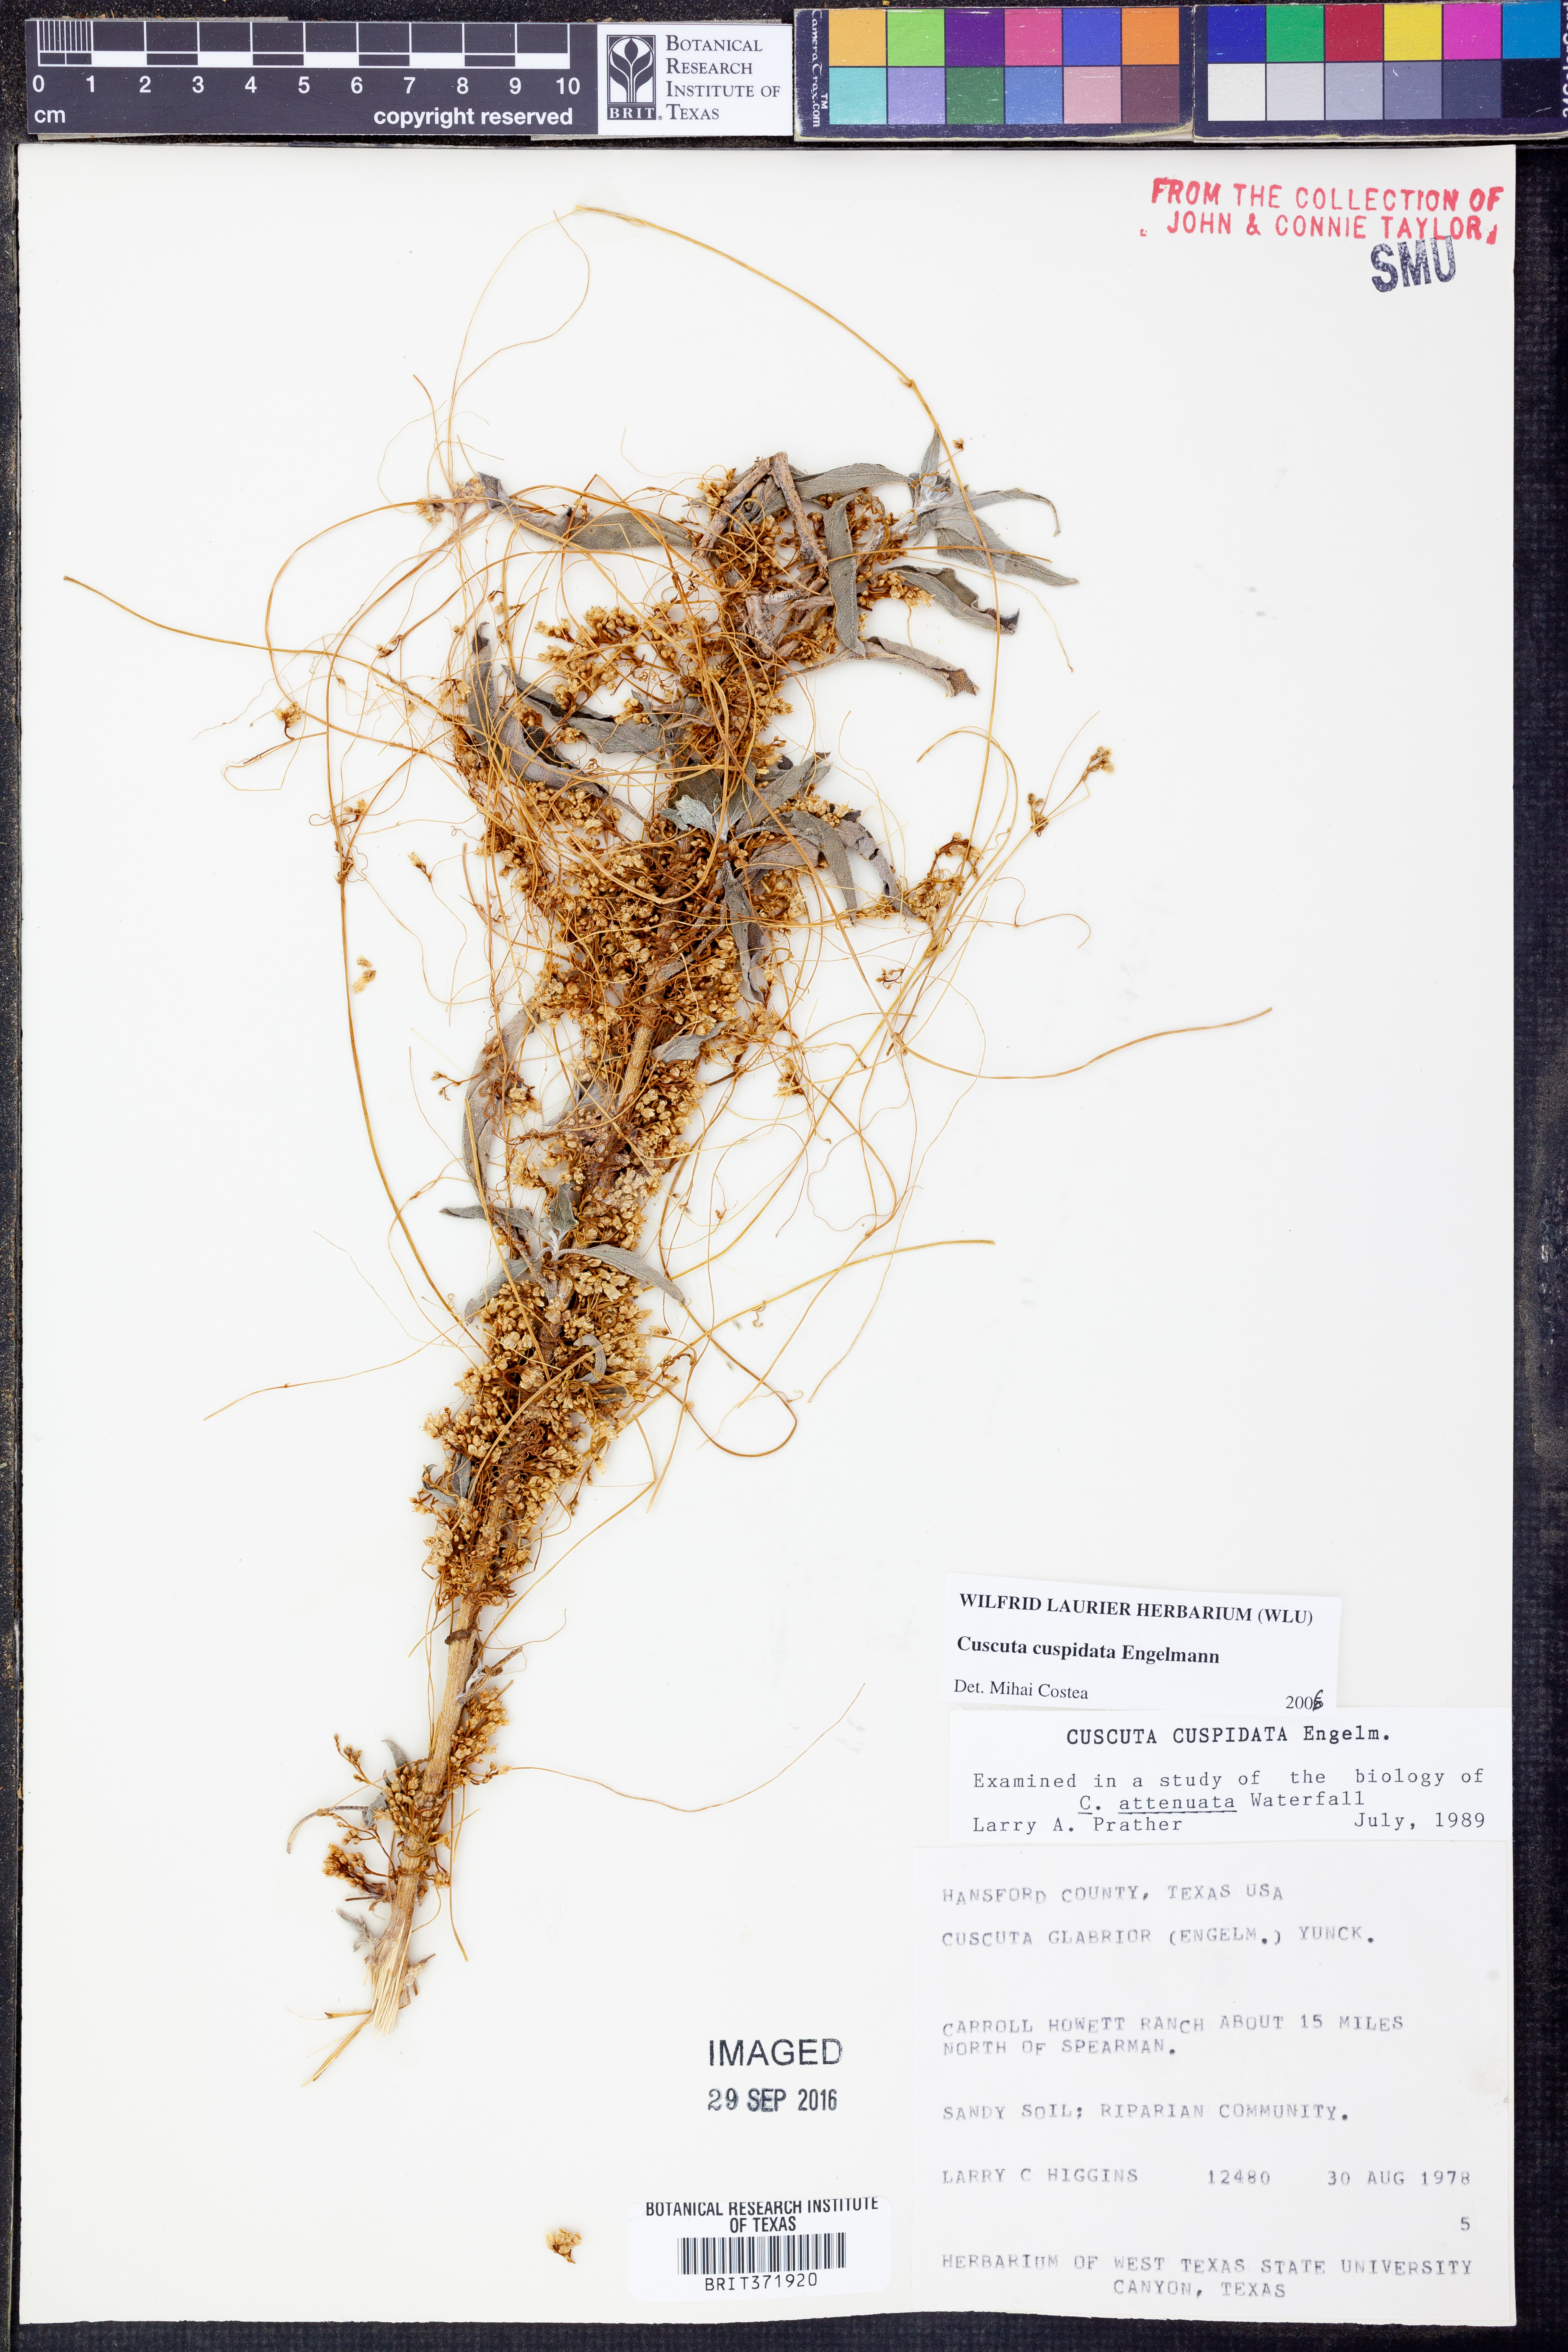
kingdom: Plantae
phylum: Tracheophyta
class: Magnoliopsida
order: Solanales
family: Convolvulaceae
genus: Cuscuta
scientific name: Cuscuta cuspidata
